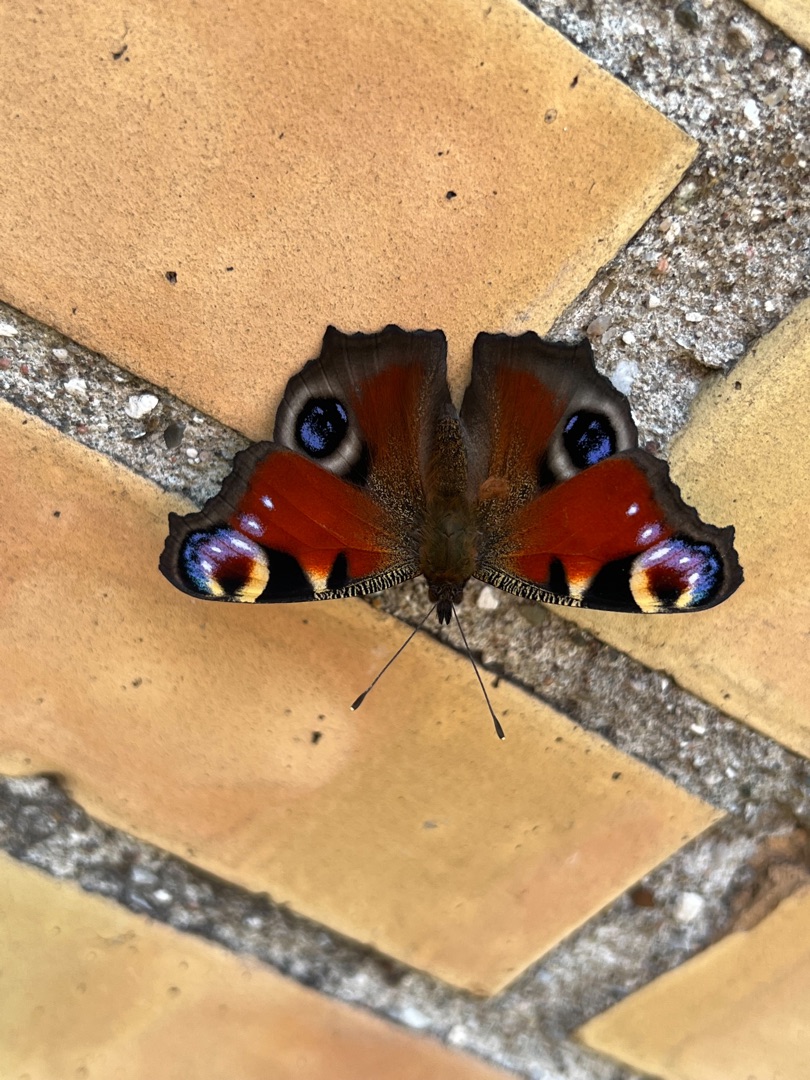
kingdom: Animalia
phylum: Arthropoda
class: Insecta
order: Lepidoptera
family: Nymphalidae
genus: Aglais
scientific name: Aglais io
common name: Dagpåfugleøje
